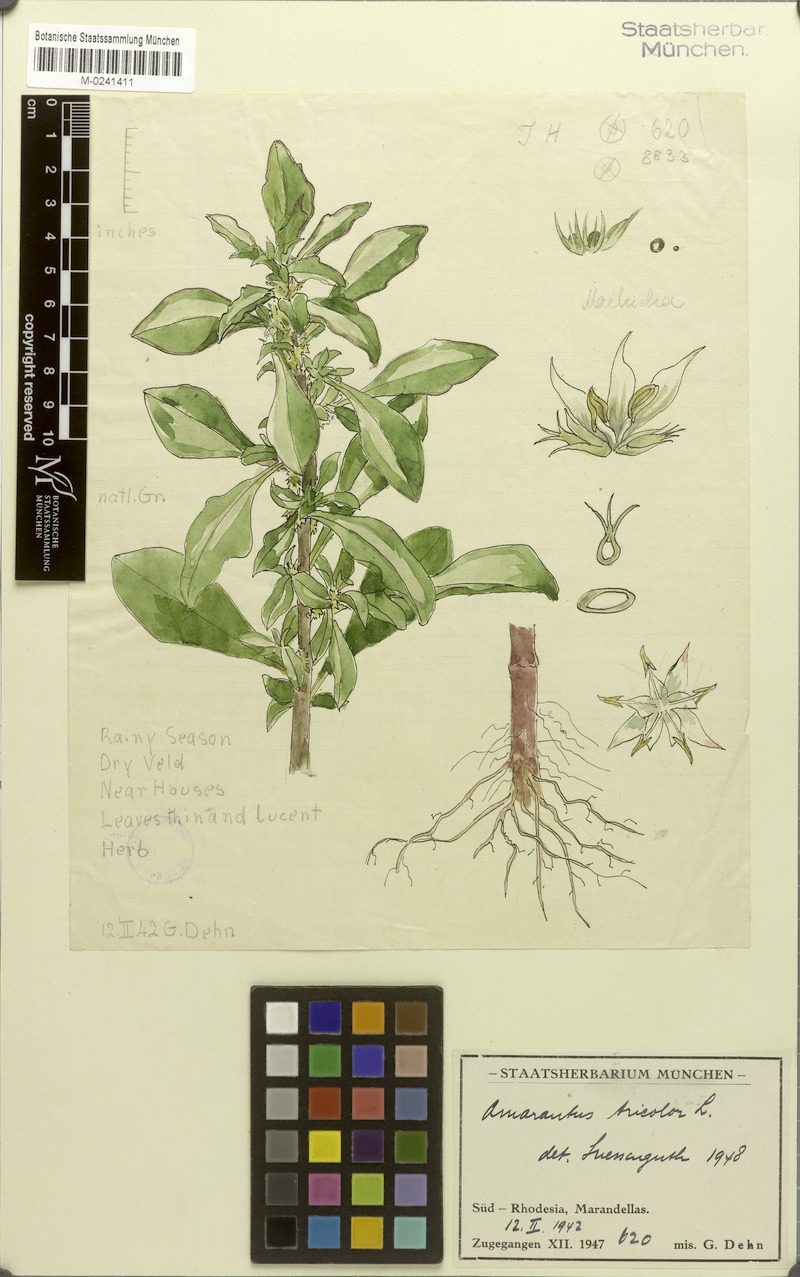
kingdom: Plantae
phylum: Tracheophyta
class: Magnoliopsida
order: Caryophyllales
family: Amaranthaceae
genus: Amaranthus
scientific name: Amaranthus tricolor
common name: Joseph's-coat
